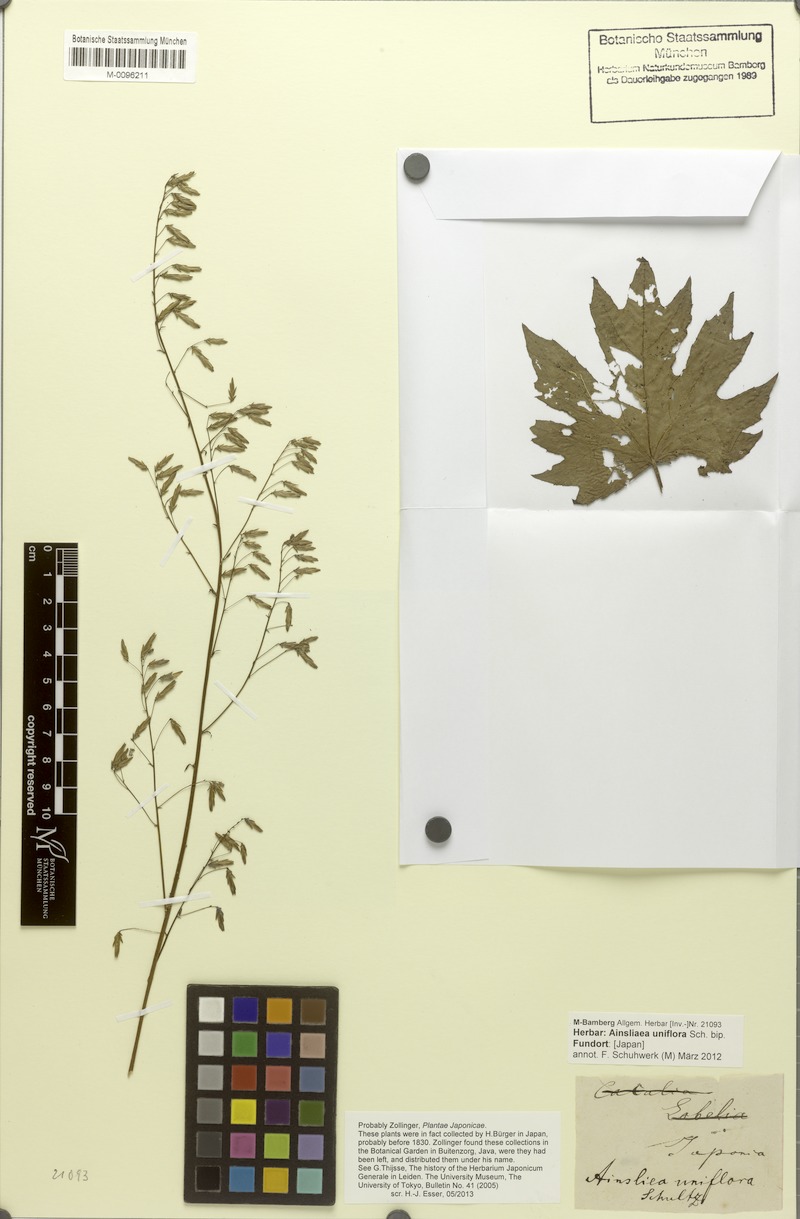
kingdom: Plantae
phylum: Tracheophyta
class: Magnoliopsida
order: Asterales
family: Asteraceae
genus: Ainsliaea
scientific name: Ainsliaea uniflora
